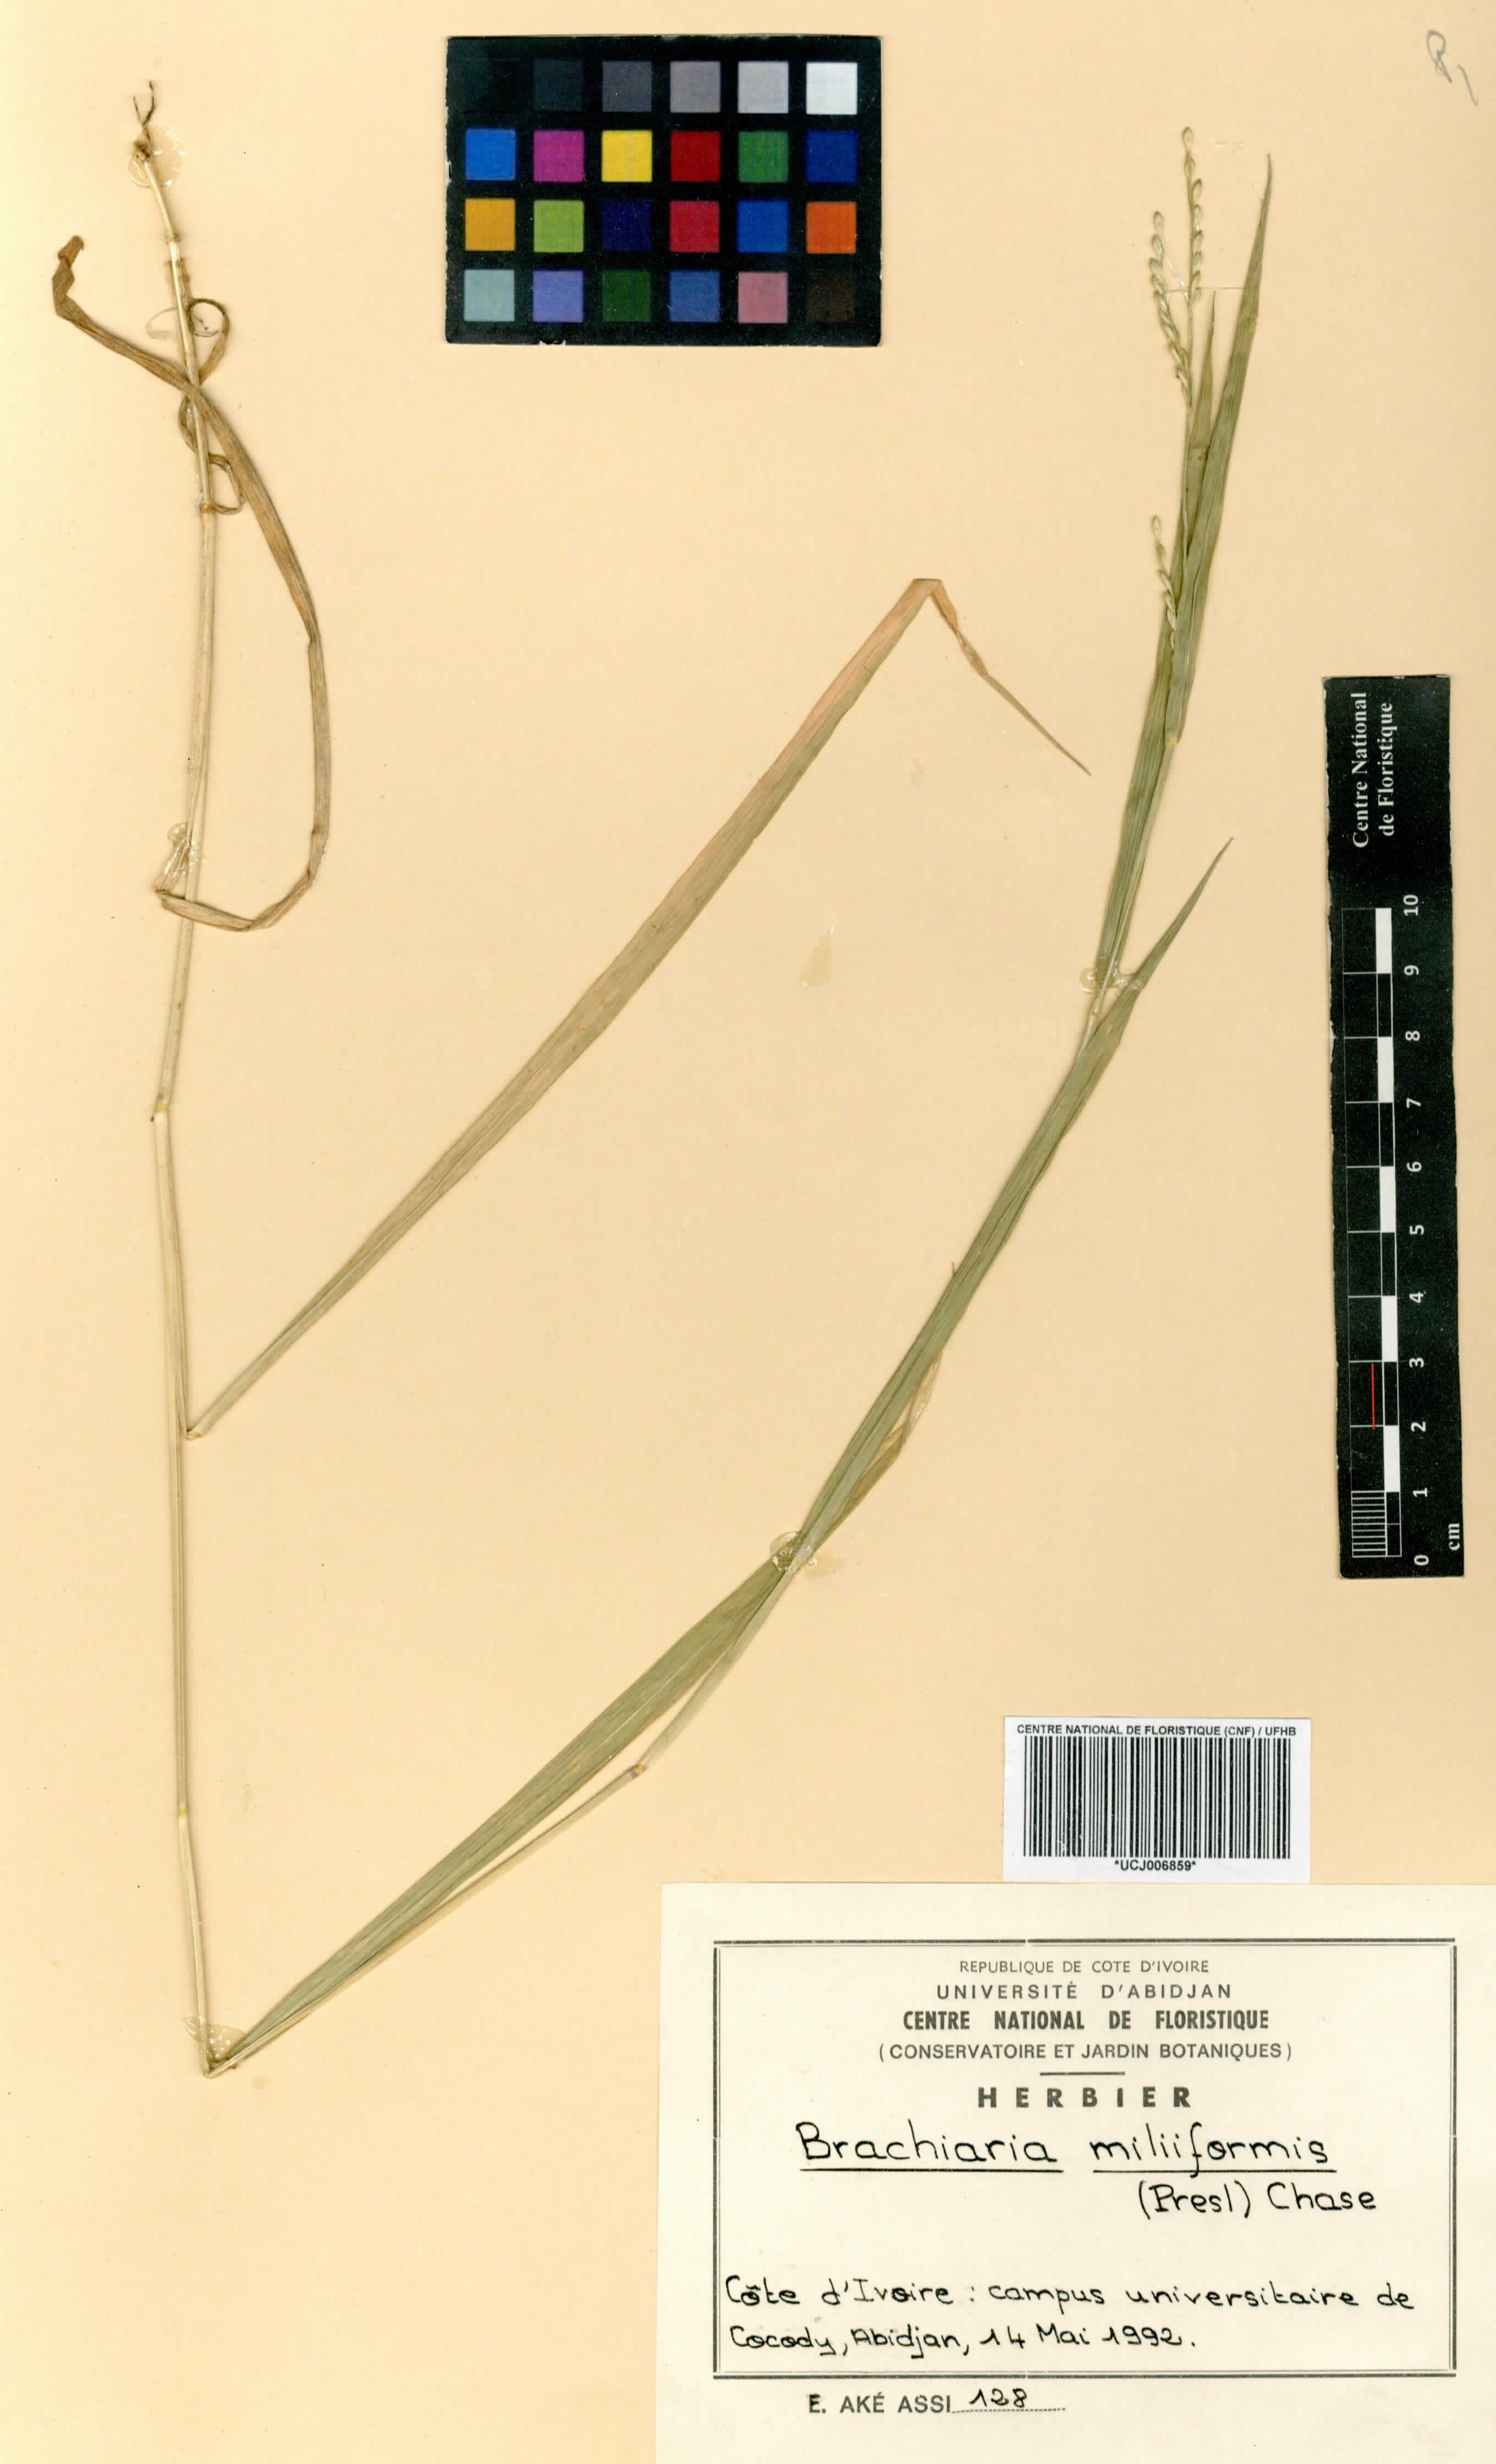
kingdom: Plantae
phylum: Tracheophyta
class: Liliopsida
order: Poales
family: Poaceae
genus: Urochloa
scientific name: Urochloa subquadripara
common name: Armgrass millet
